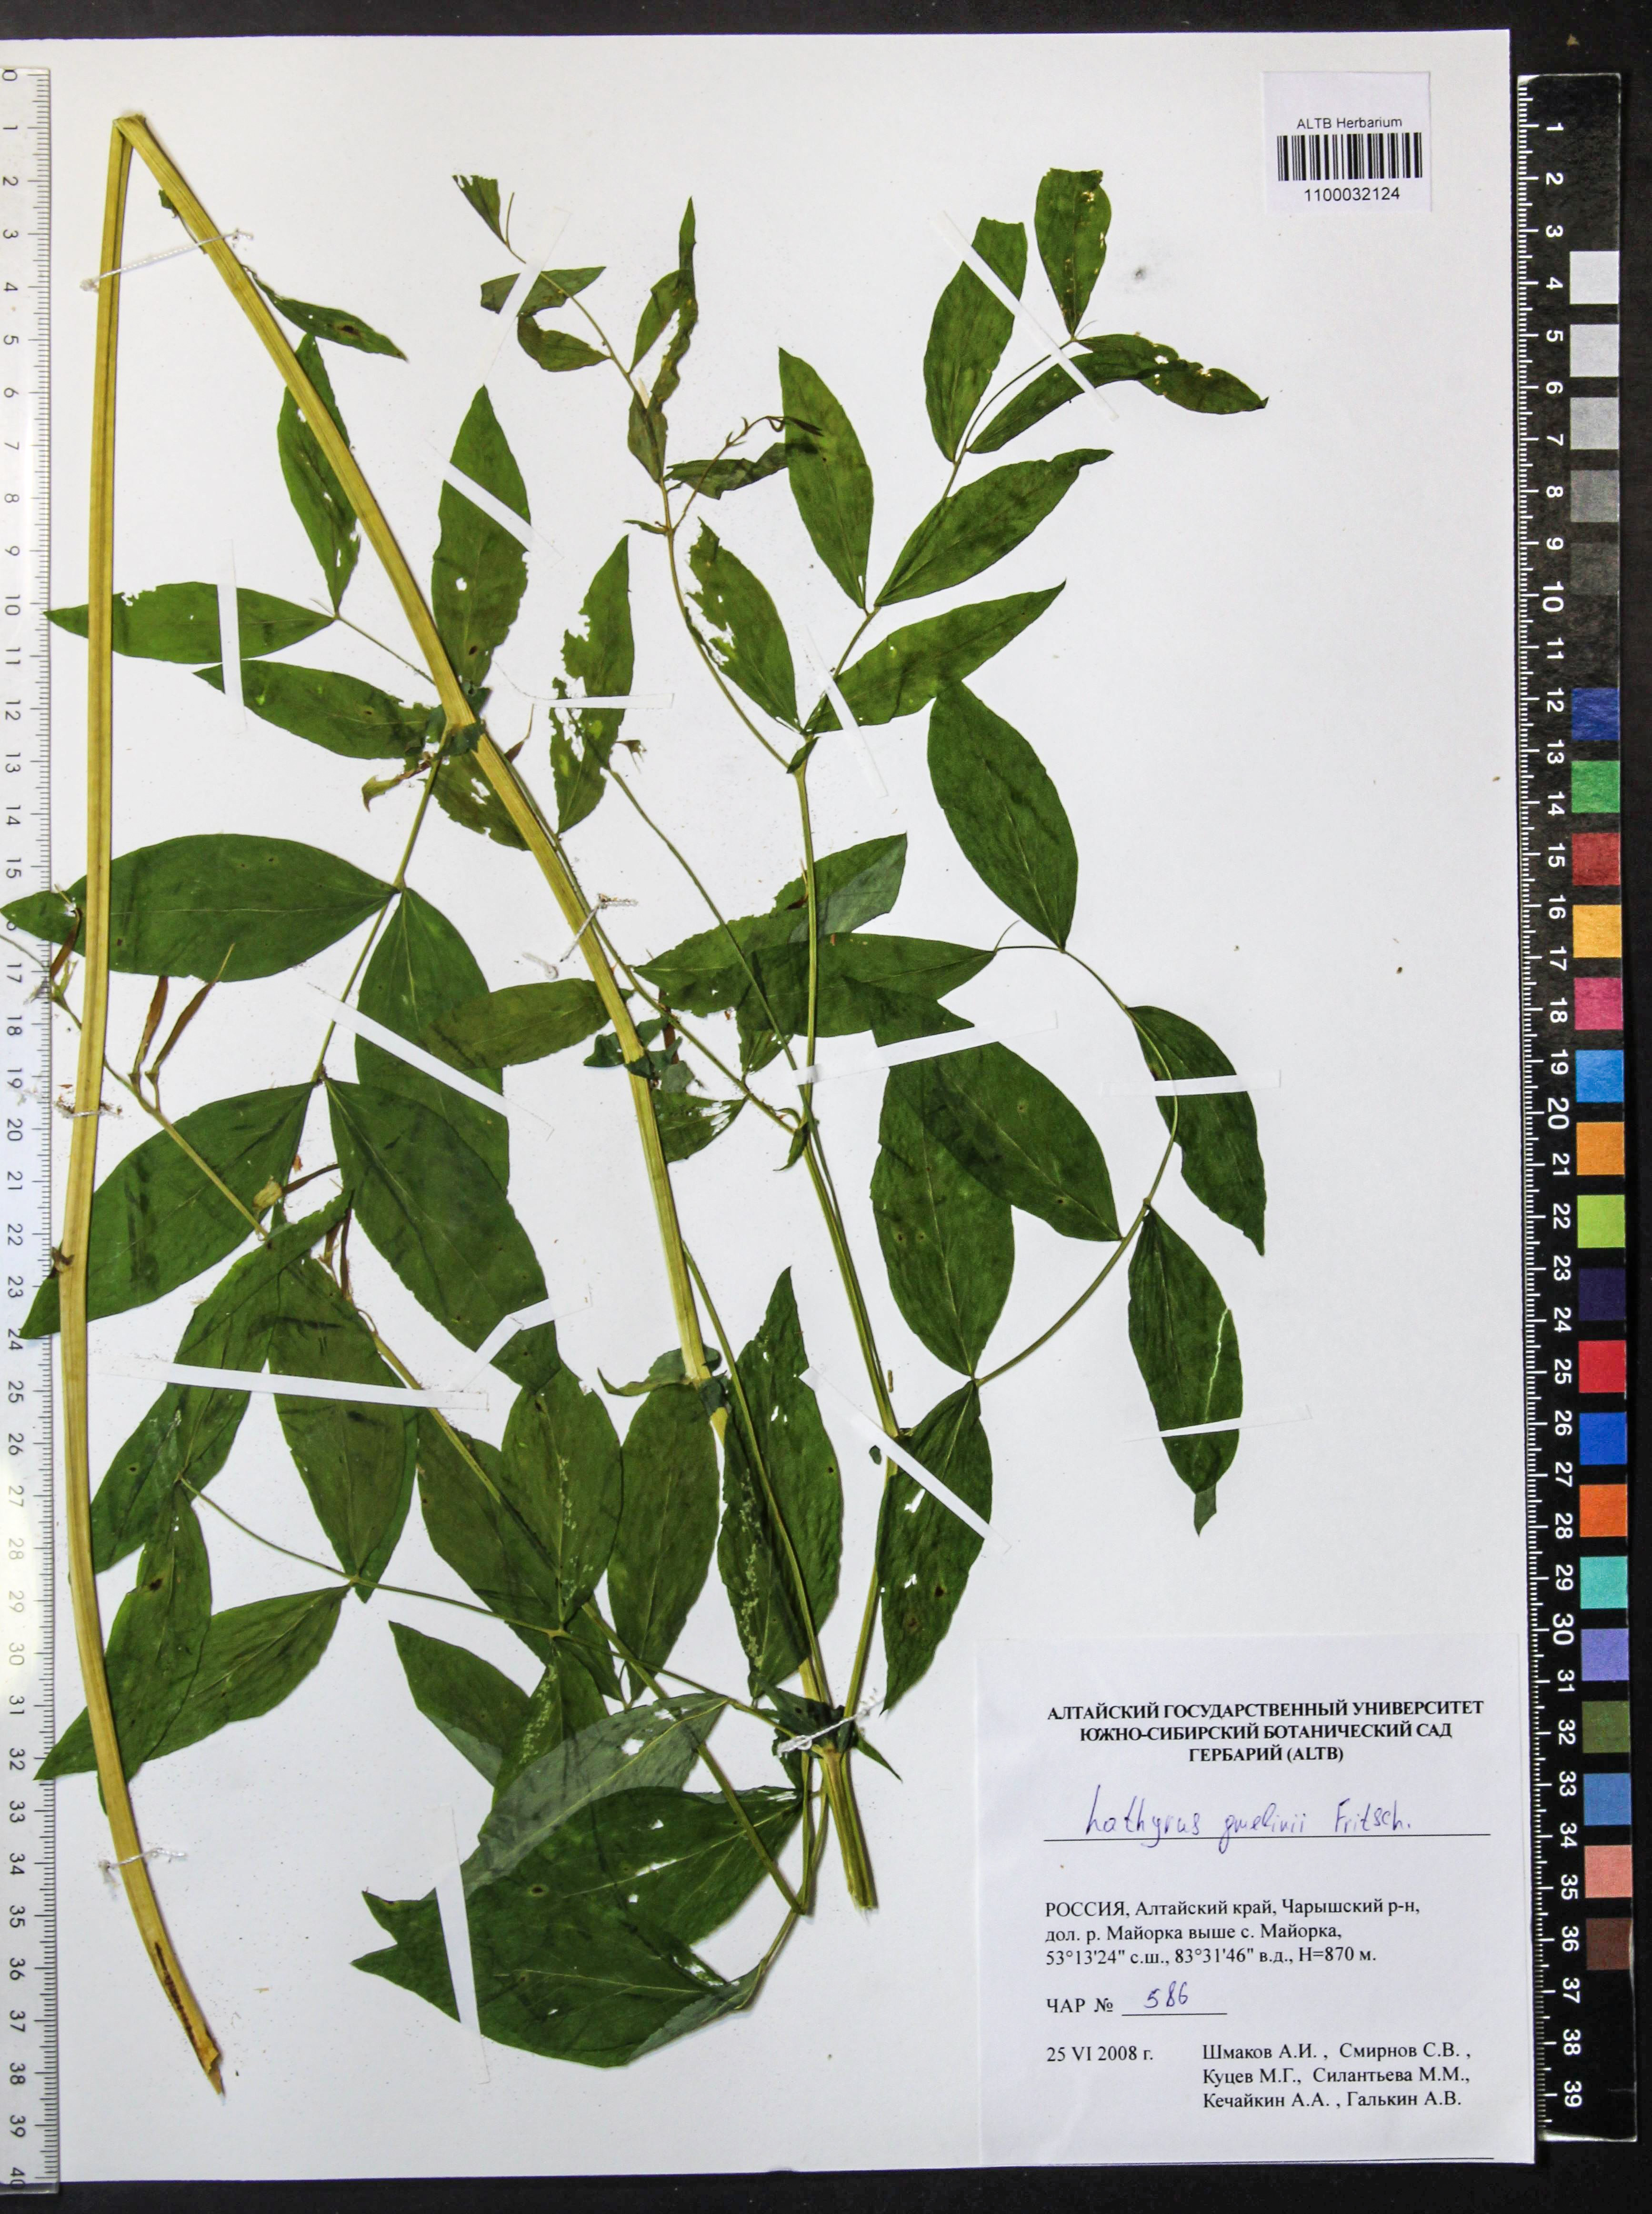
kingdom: Plantae
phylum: Tracheophyta
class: Magnoliopsida
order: Fabales
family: Fabaceae
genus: Lathyrus
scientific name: Lathyrus gmelinii
